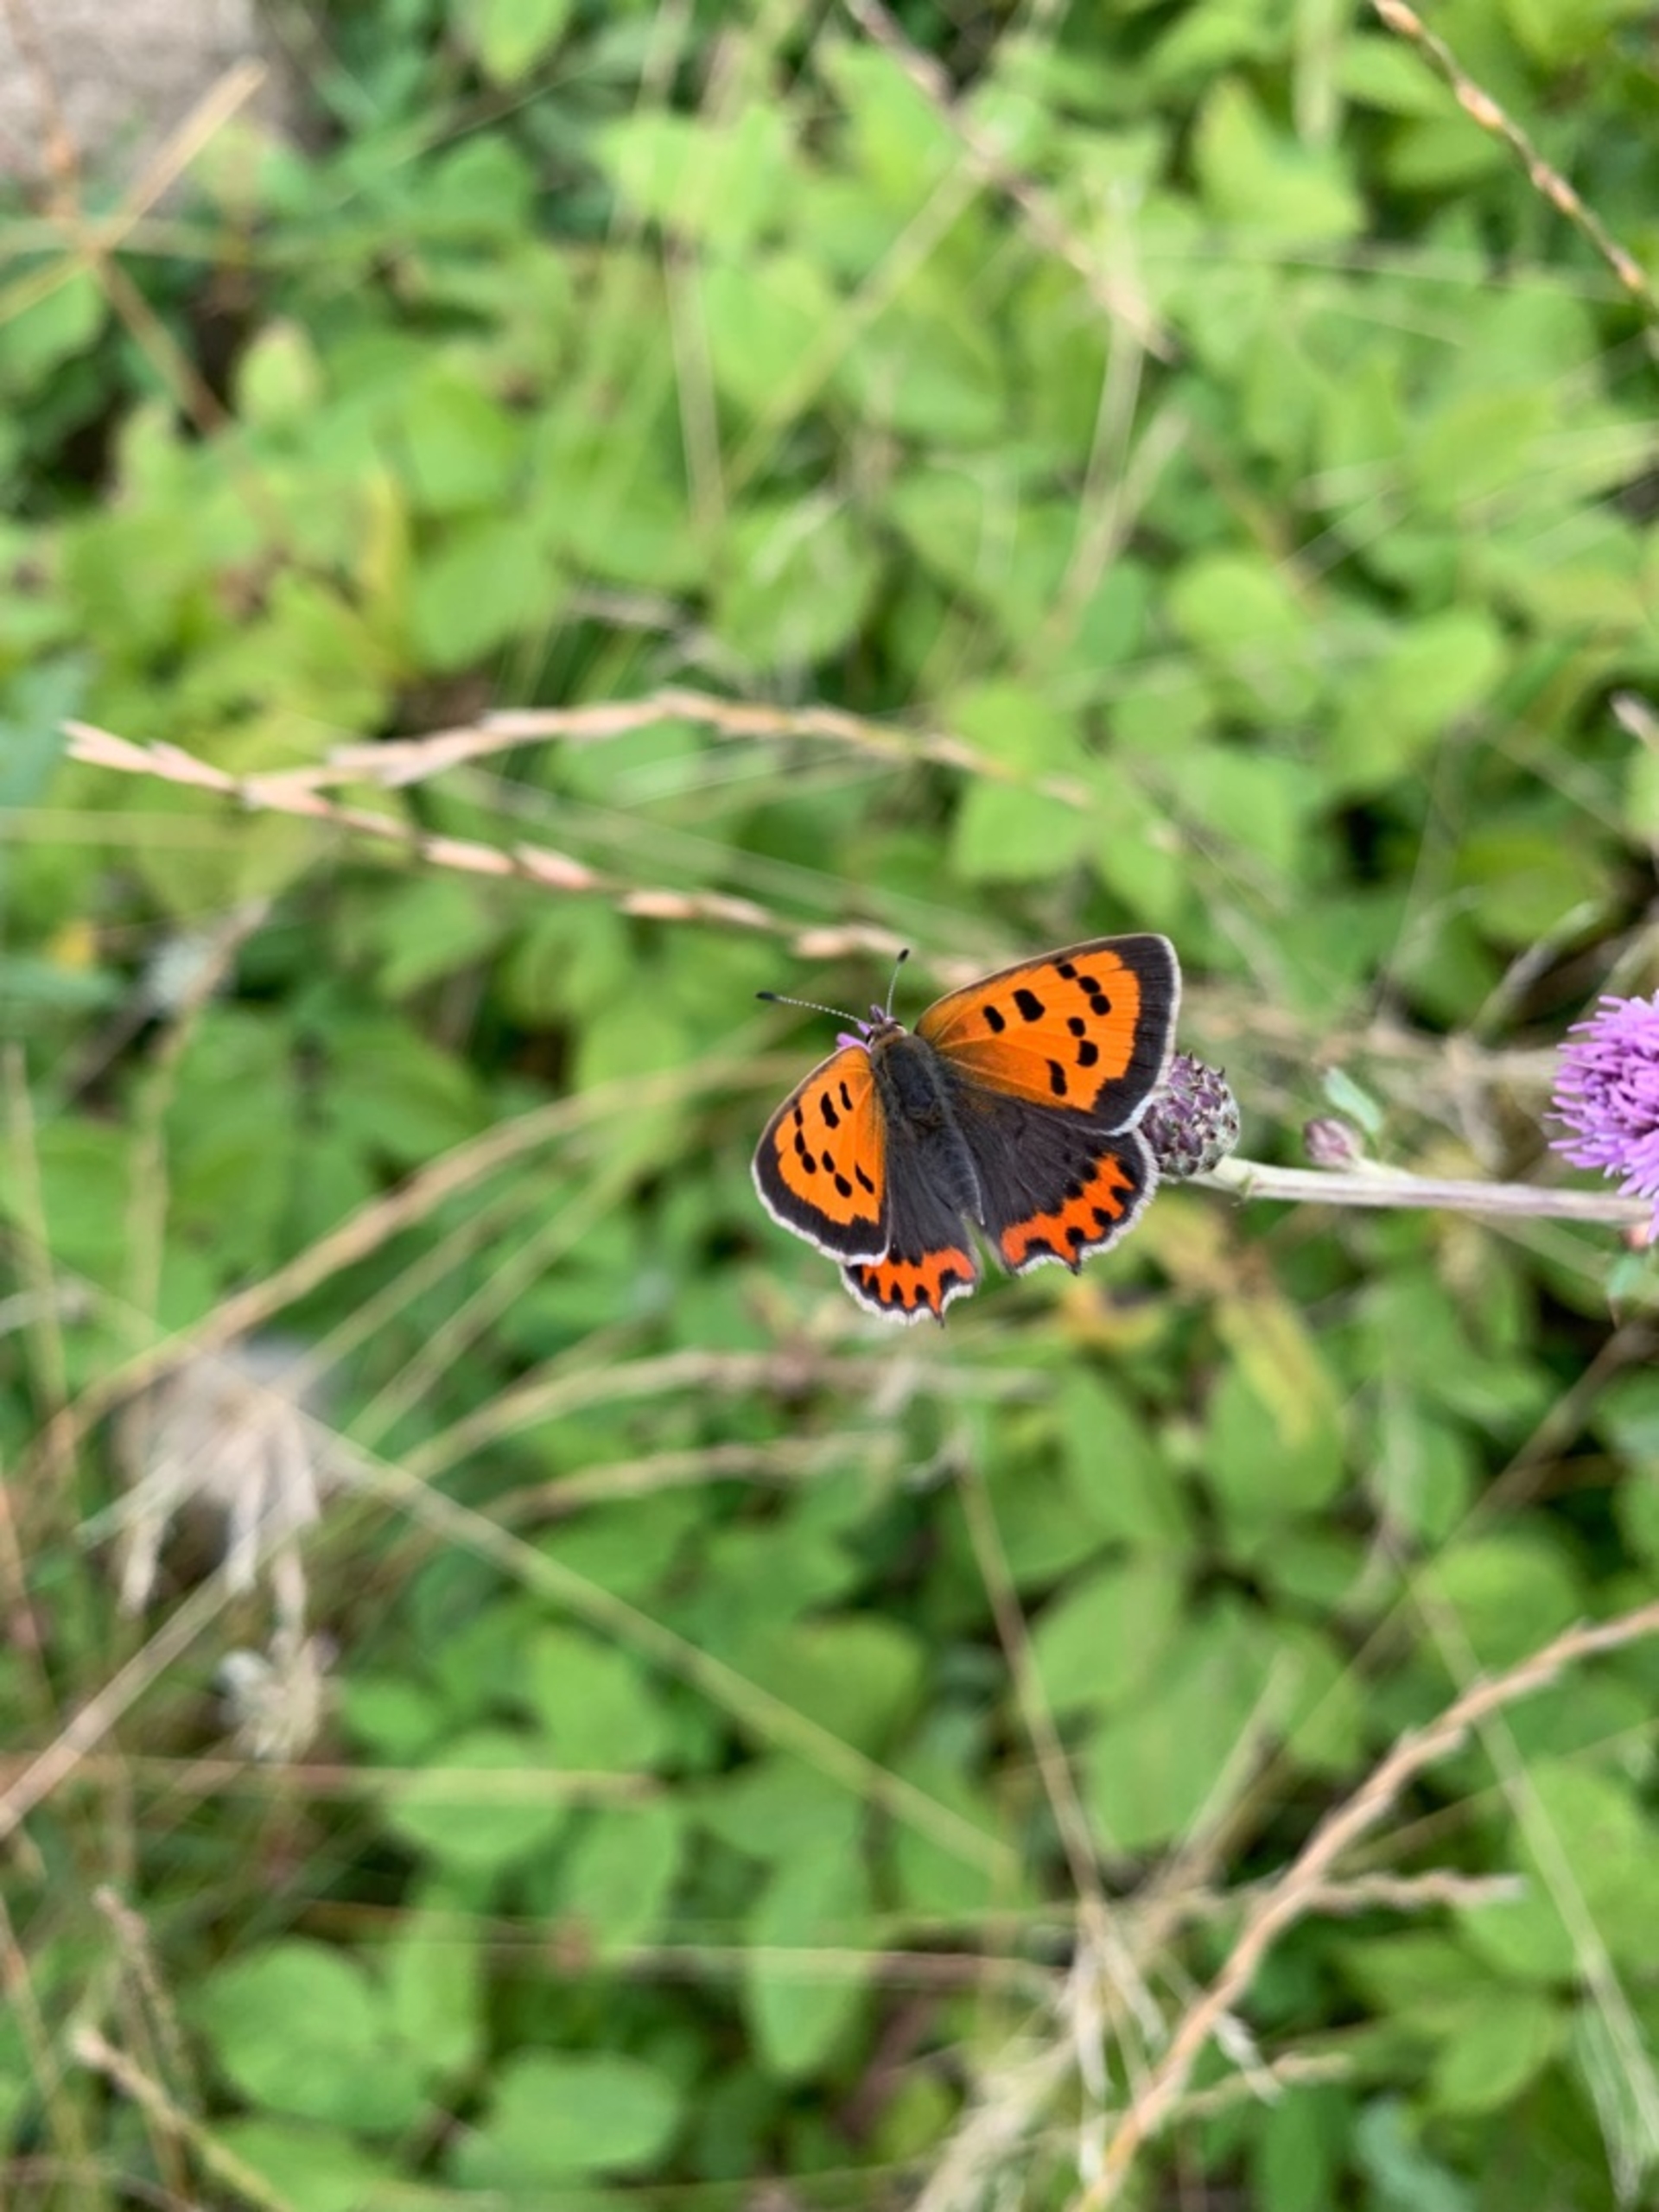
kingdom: Animalia
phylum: Arthropoda
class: Insecta
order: Lepidoptera
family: Lycaenidae
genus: Lycaena
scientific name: Lycaena phlaeas
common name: Lille ildfugl
